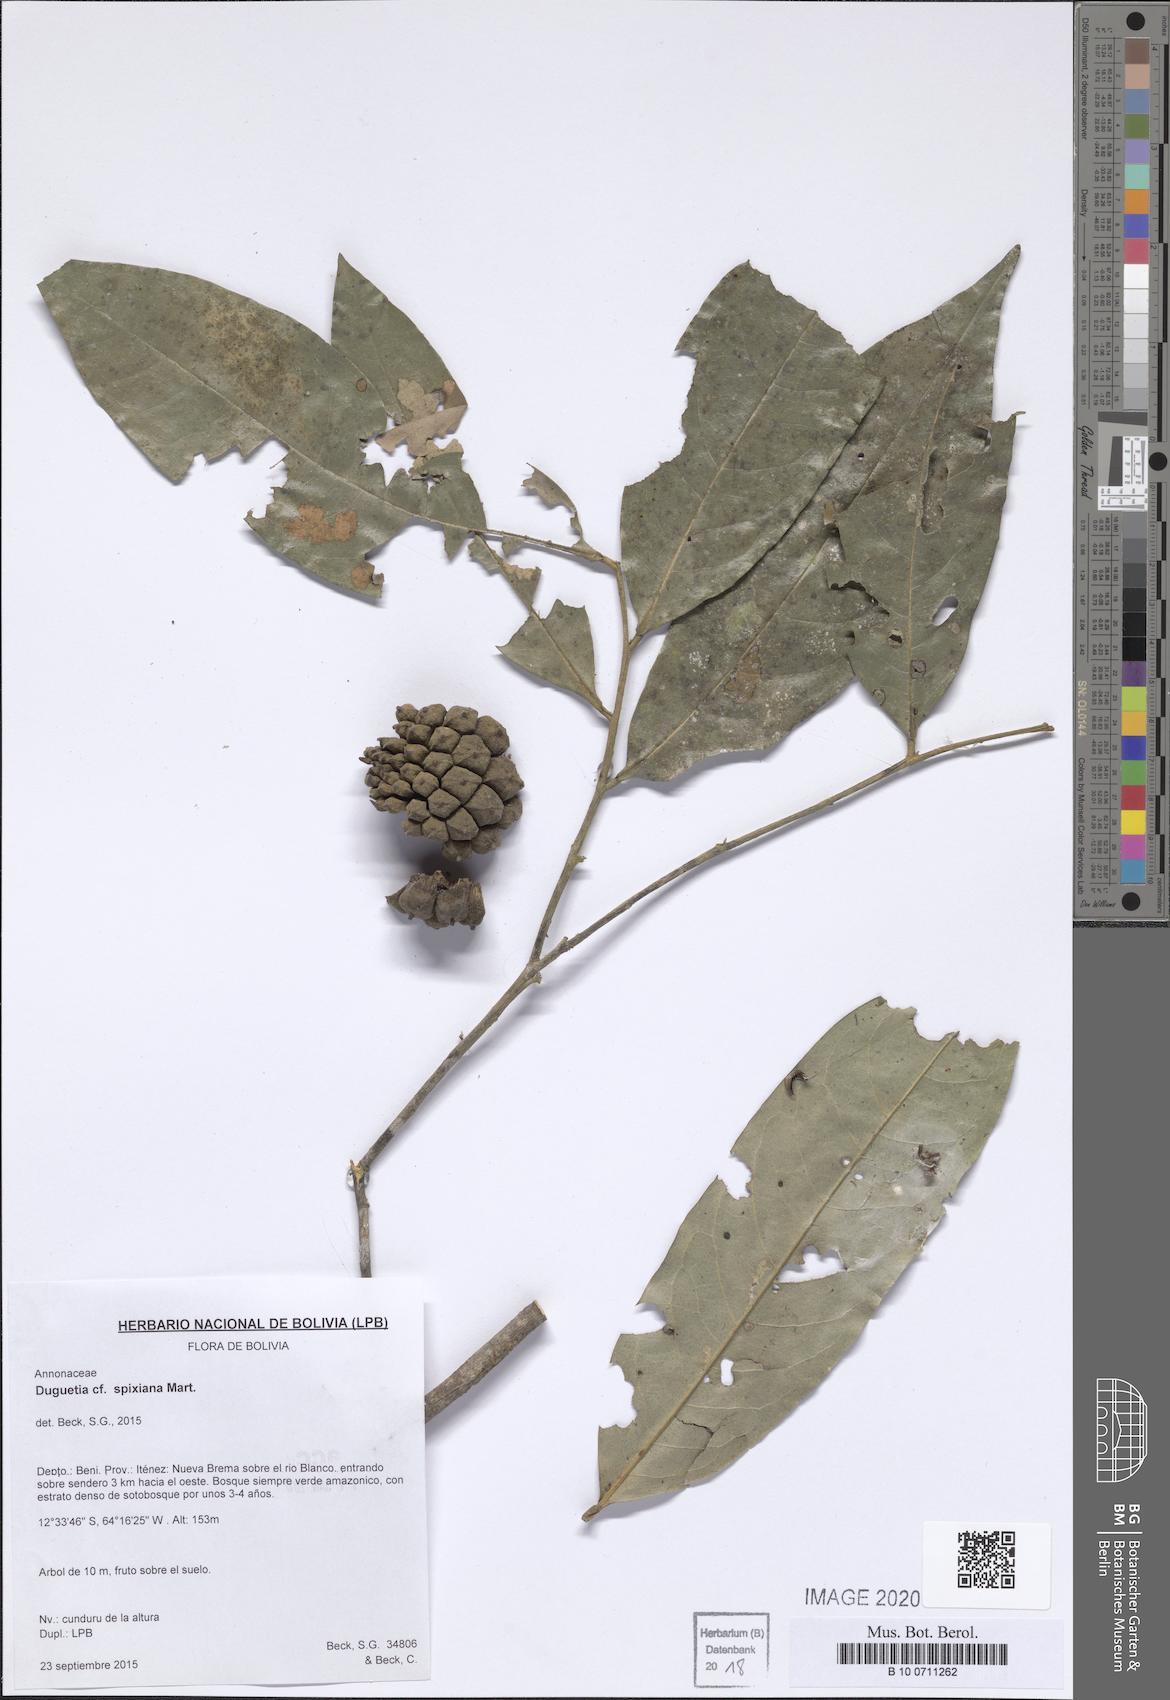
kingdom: Plantae
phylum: Tracheophyta
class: Magnoliopsida
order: Magnoliales
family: Annonaceae
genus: Duguetia
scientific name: Duguetia spixiana
